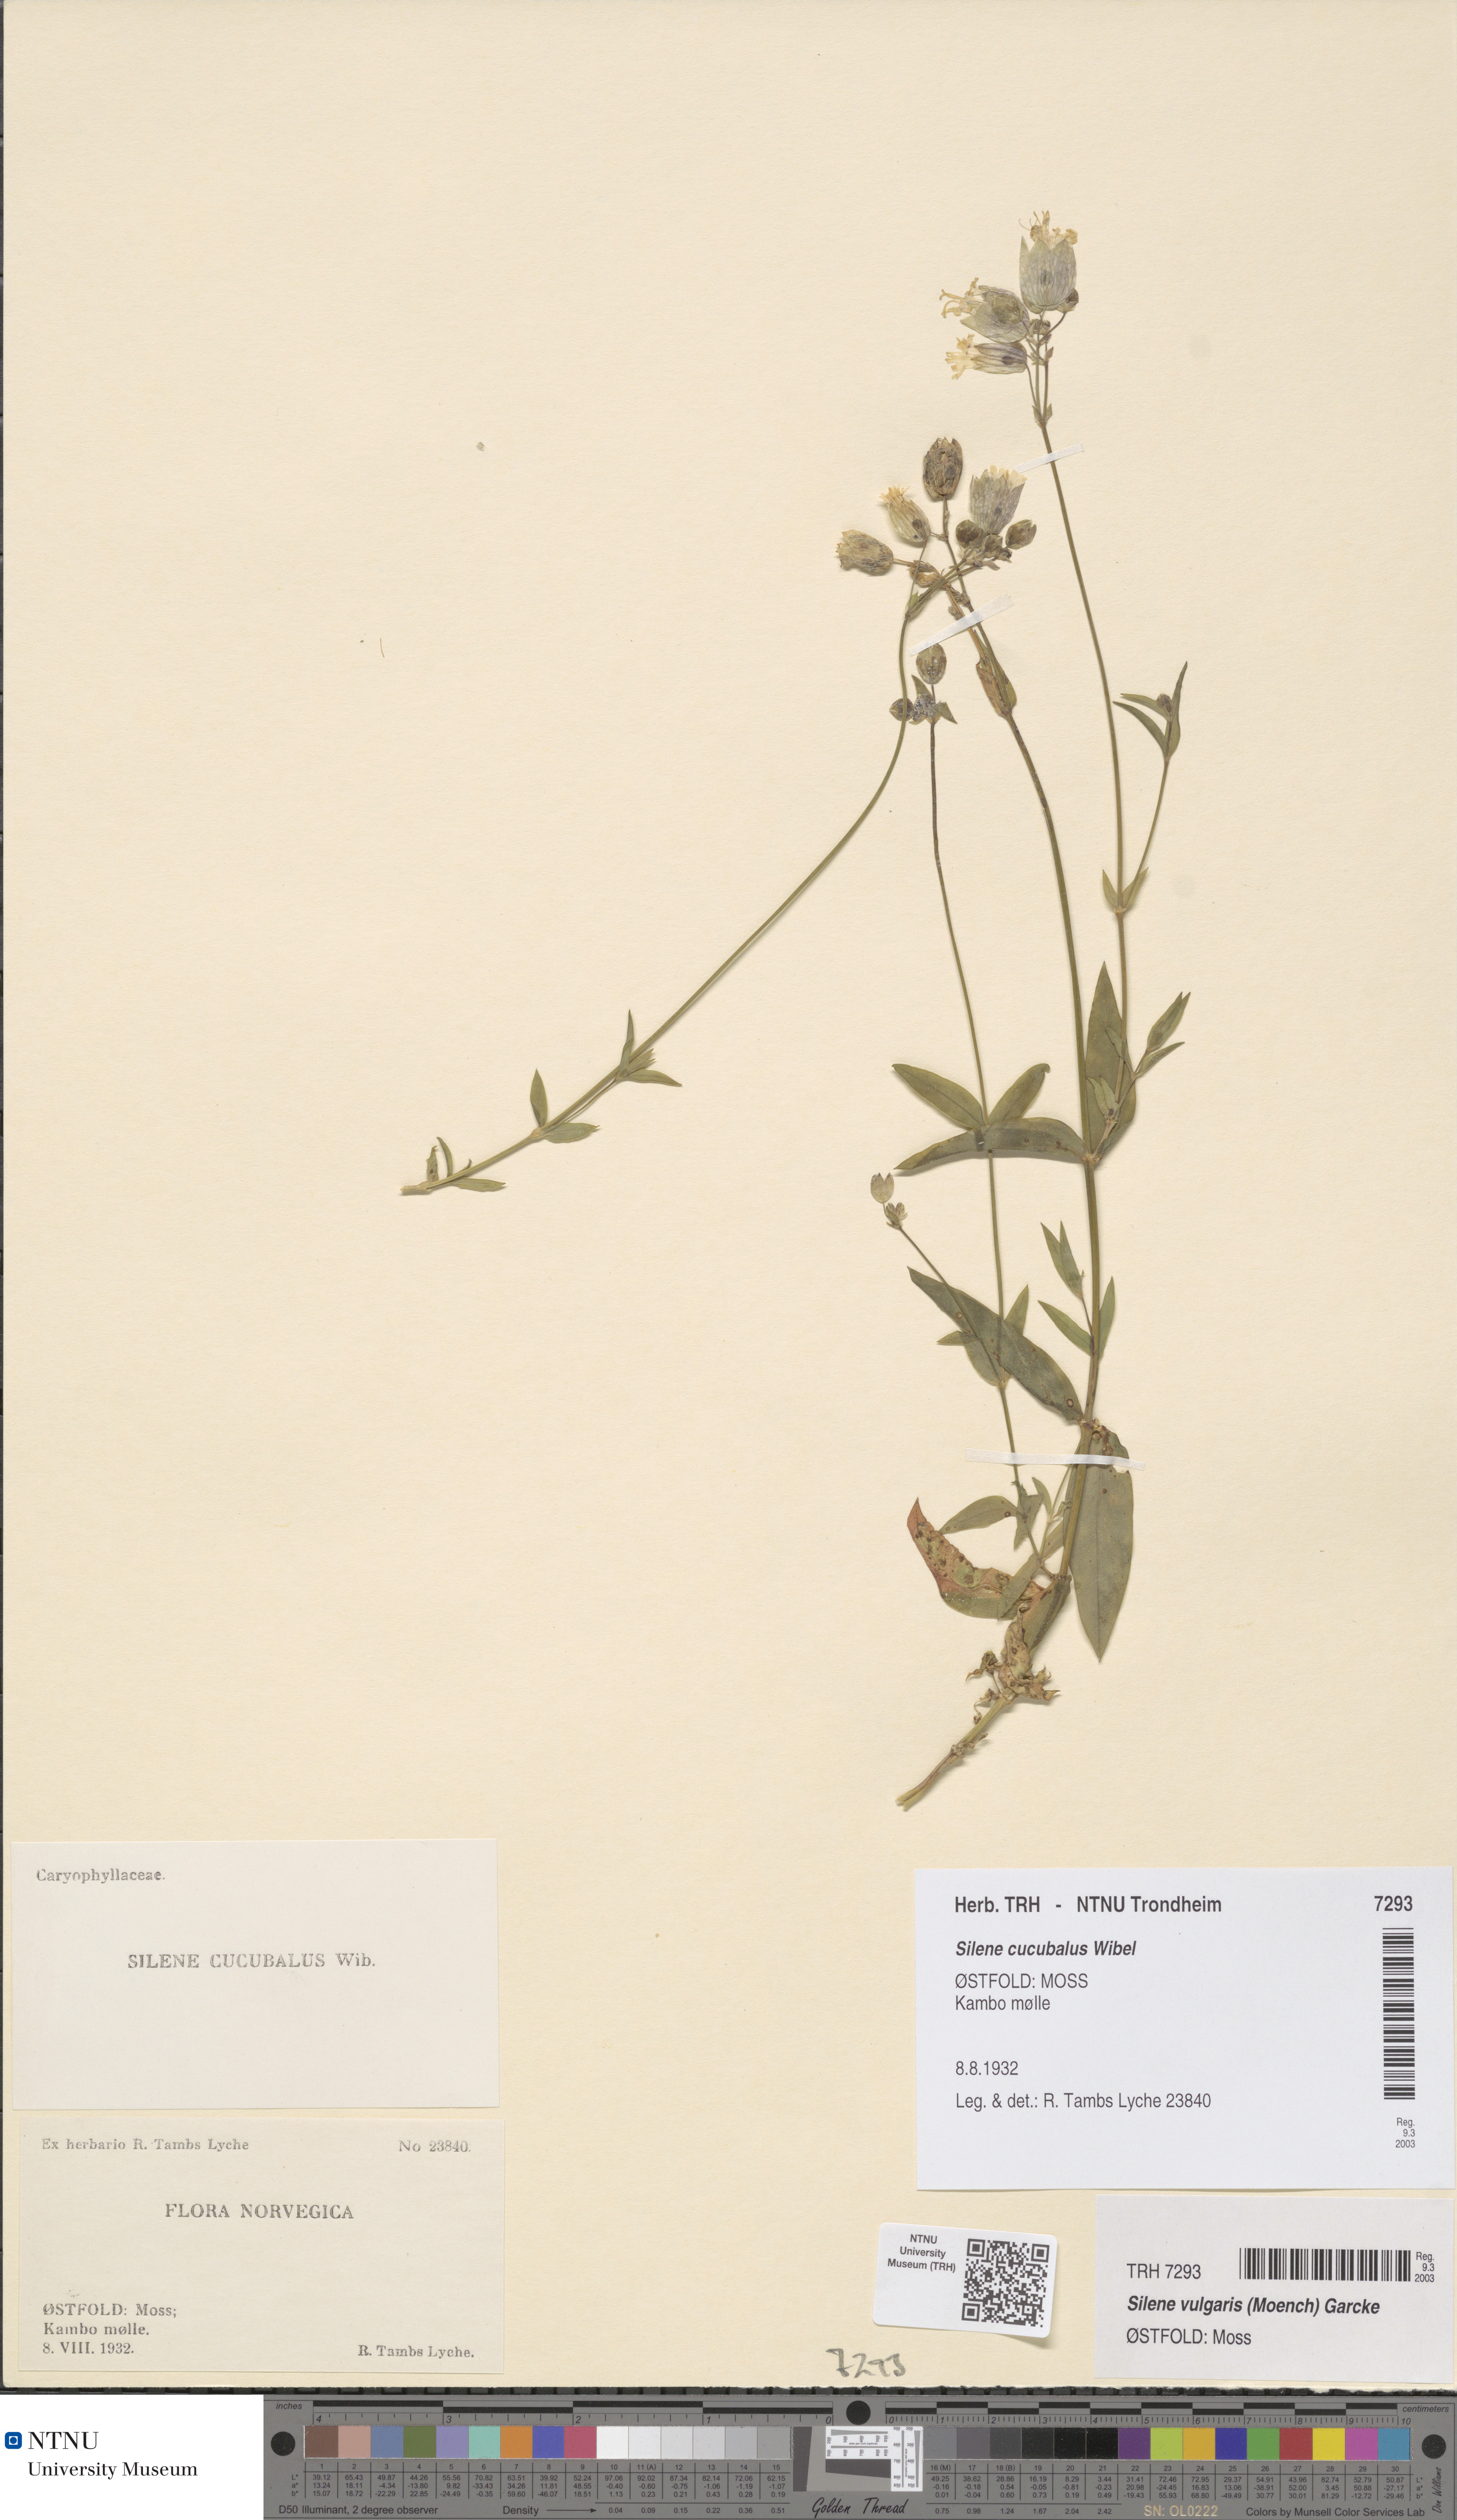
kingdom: Plantae
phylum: Tracheophyta
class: Magnoliopsida
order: Caryophyllales
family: Caryophyllaceae
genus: Silene
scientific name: Silene vulgaris
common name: Bladder campion
